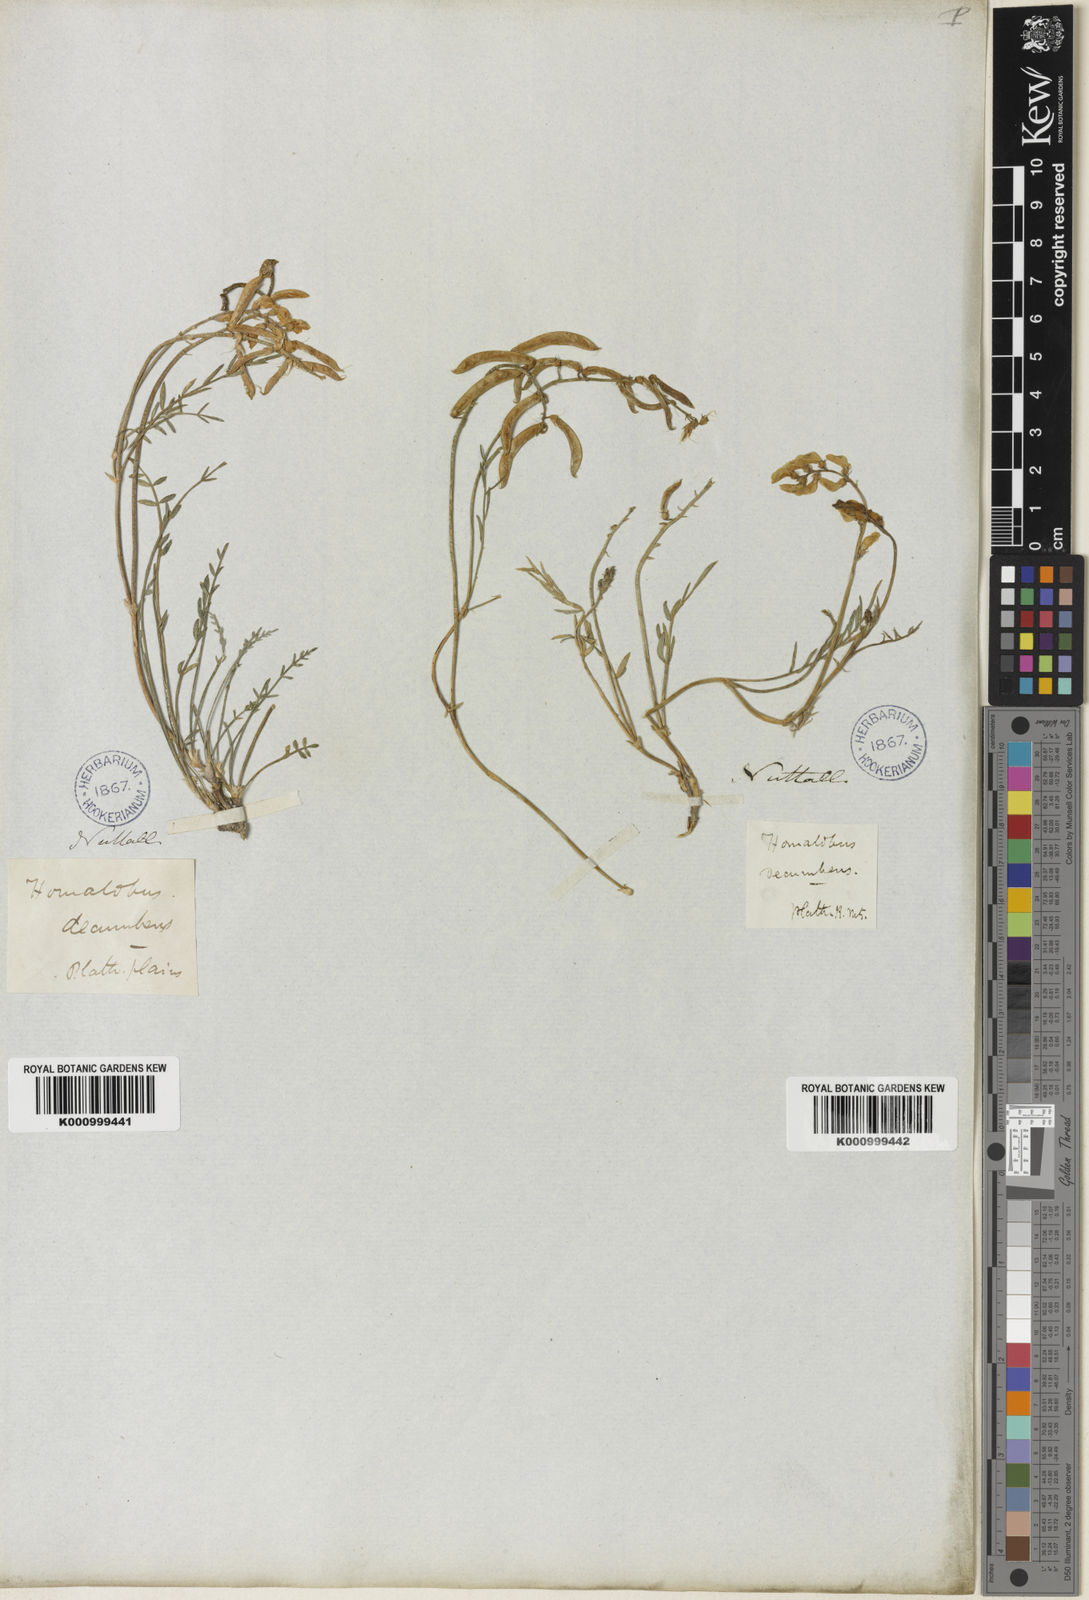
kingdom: Plantae
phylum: Tracheophyta
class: Magnoliopsida
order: Fabales
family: Fabaceae
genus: Astragalus
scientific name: Astragalus miser
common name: Timber milkvetch
